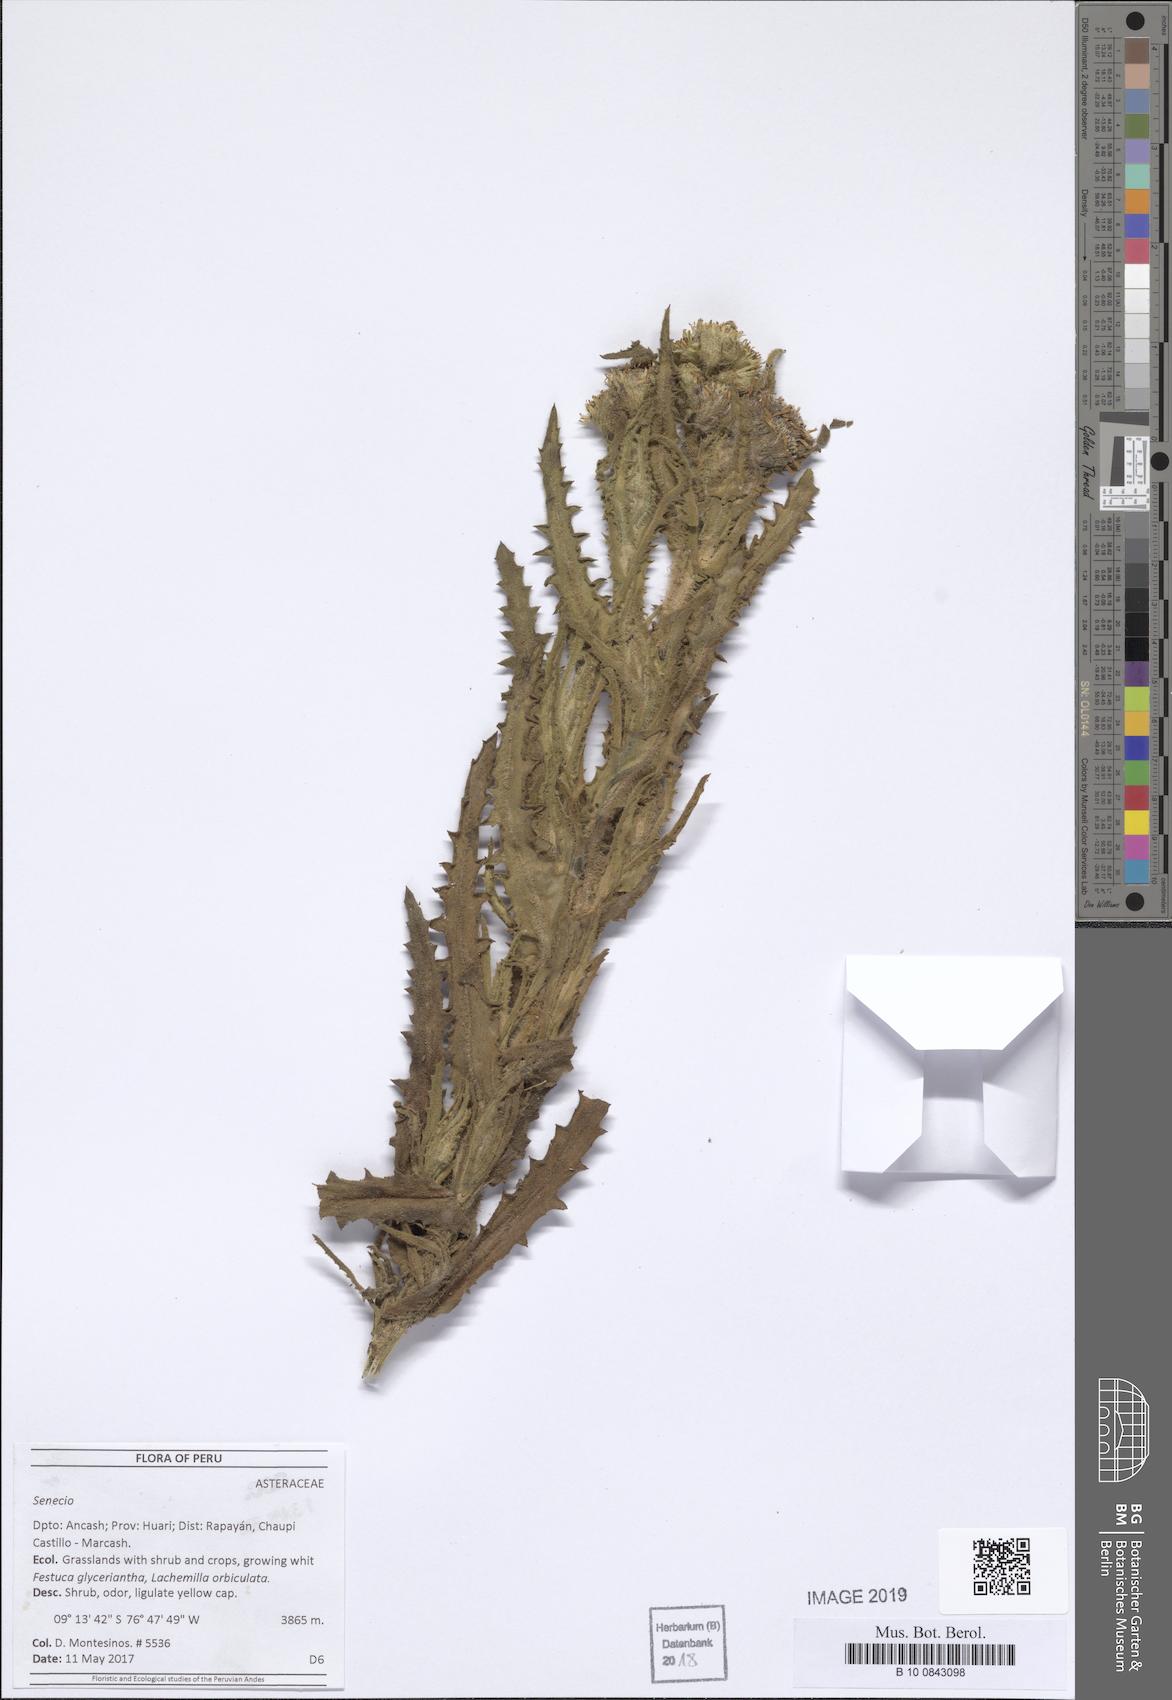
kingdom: Plantae
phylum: Tracheophyta
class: Magnoliopsida
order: Asterales
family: Asteraceae
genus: Senecio
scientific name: Senecio chavanilloensis
